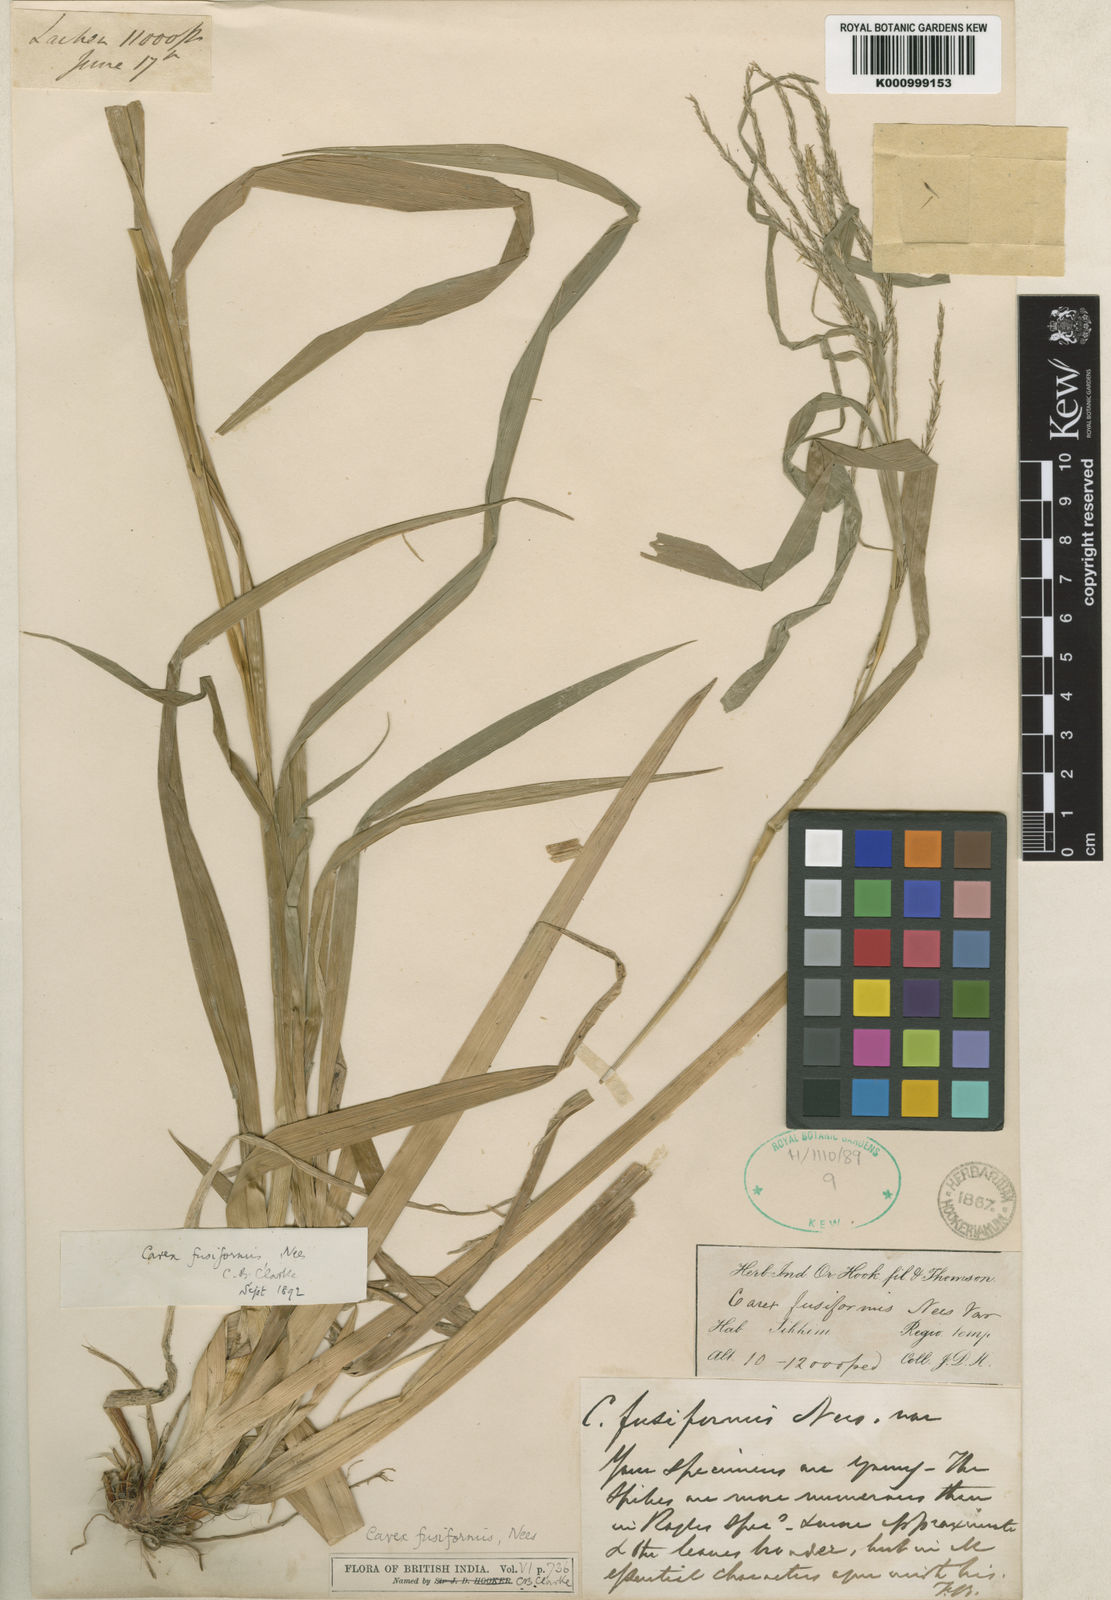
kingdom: Plantae
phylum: Tracheophyta
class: Liliopsida
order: Poales
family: Cyperaceae
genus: Carex
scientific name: Carex fusiformis
